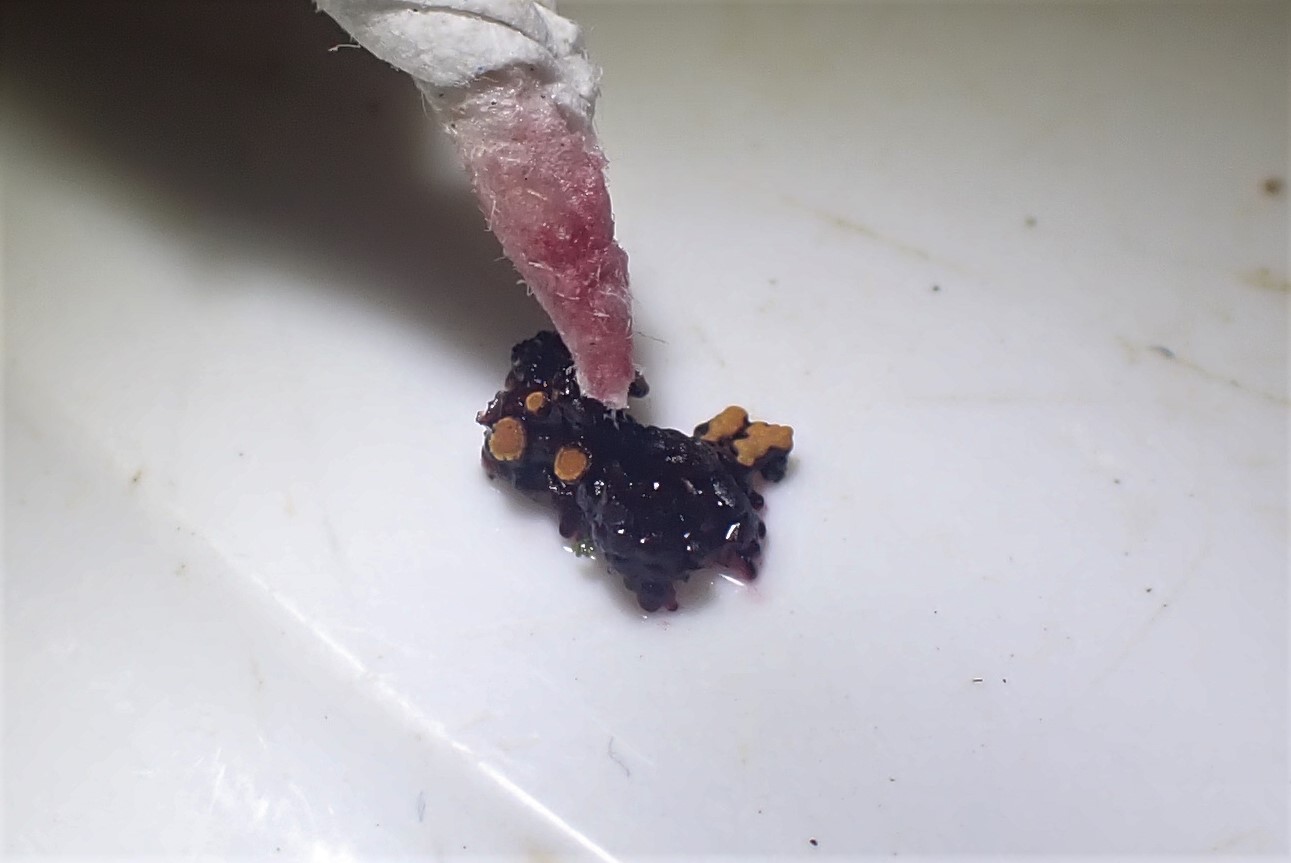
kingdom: Fungi
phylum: Ascomycota
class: Lecanoromycetes
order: Teloschistales
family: Teloschistaceae
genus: Xanthoria
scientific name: Xanthoria elegans
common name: fjeld-væggelav
